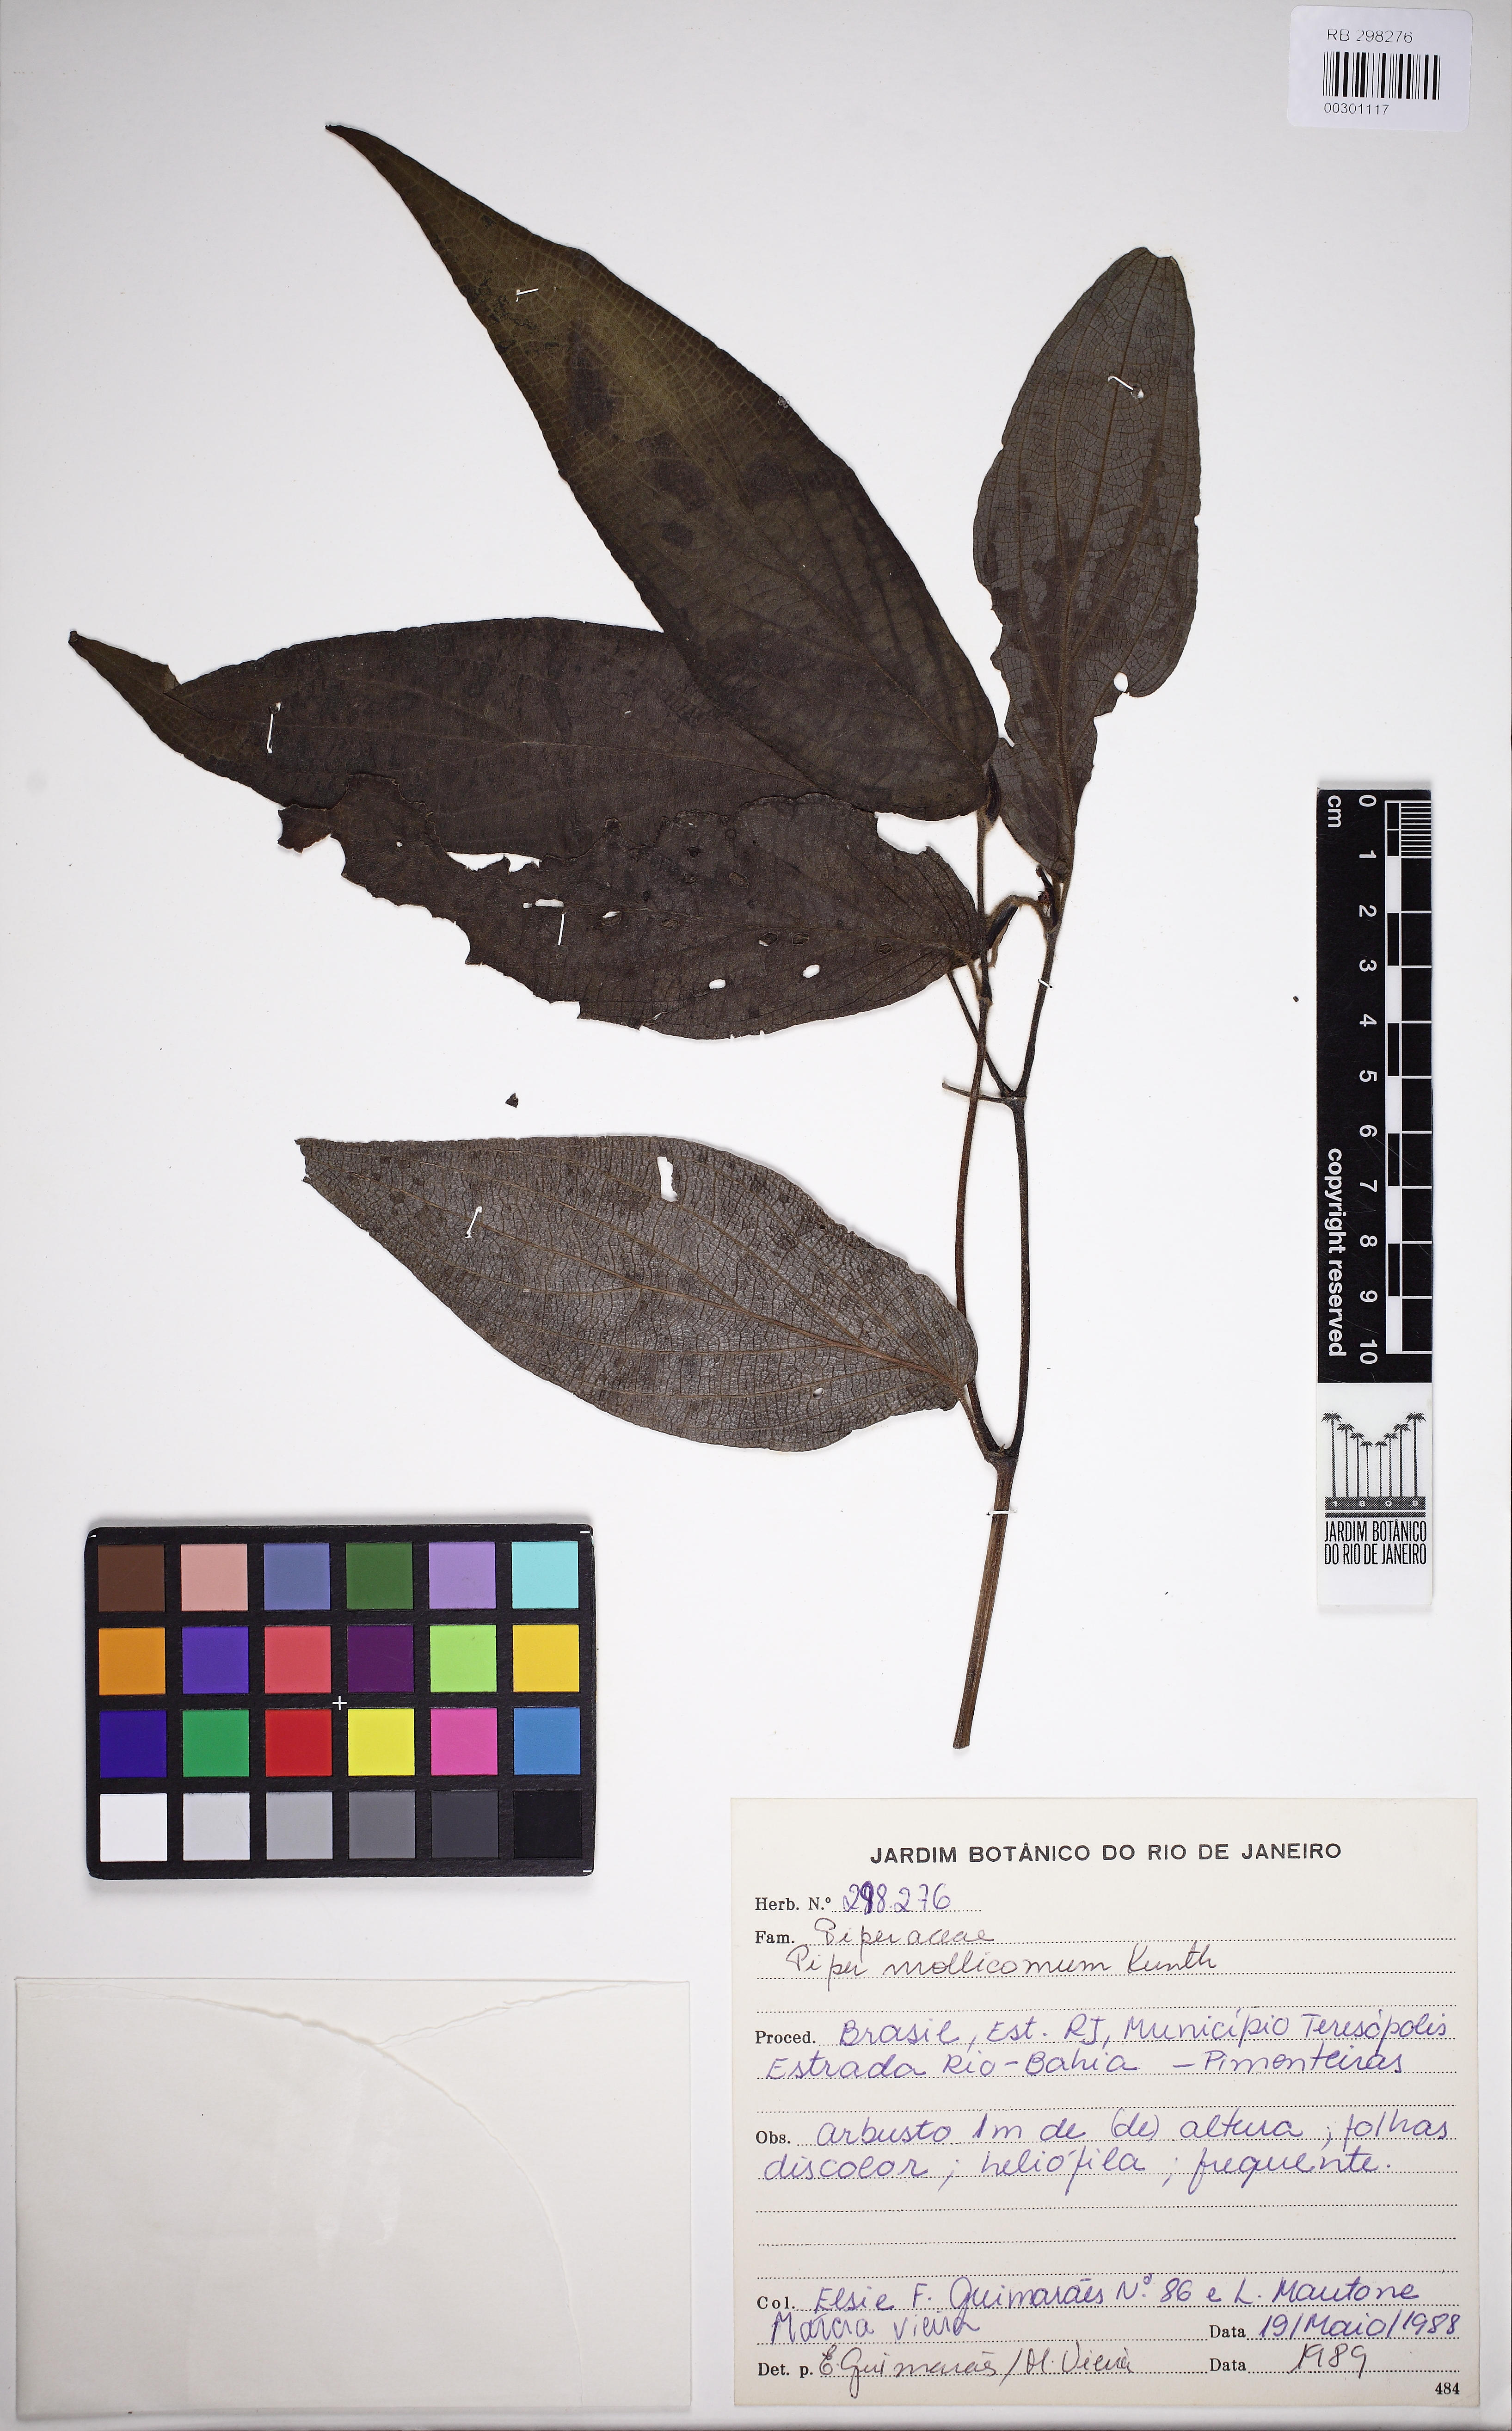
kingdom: Plantae
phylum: Tracheophyta
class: Magnoliopsida
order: Piperales
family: Piperaceae
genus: Piper
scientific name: Piper mollicomum
